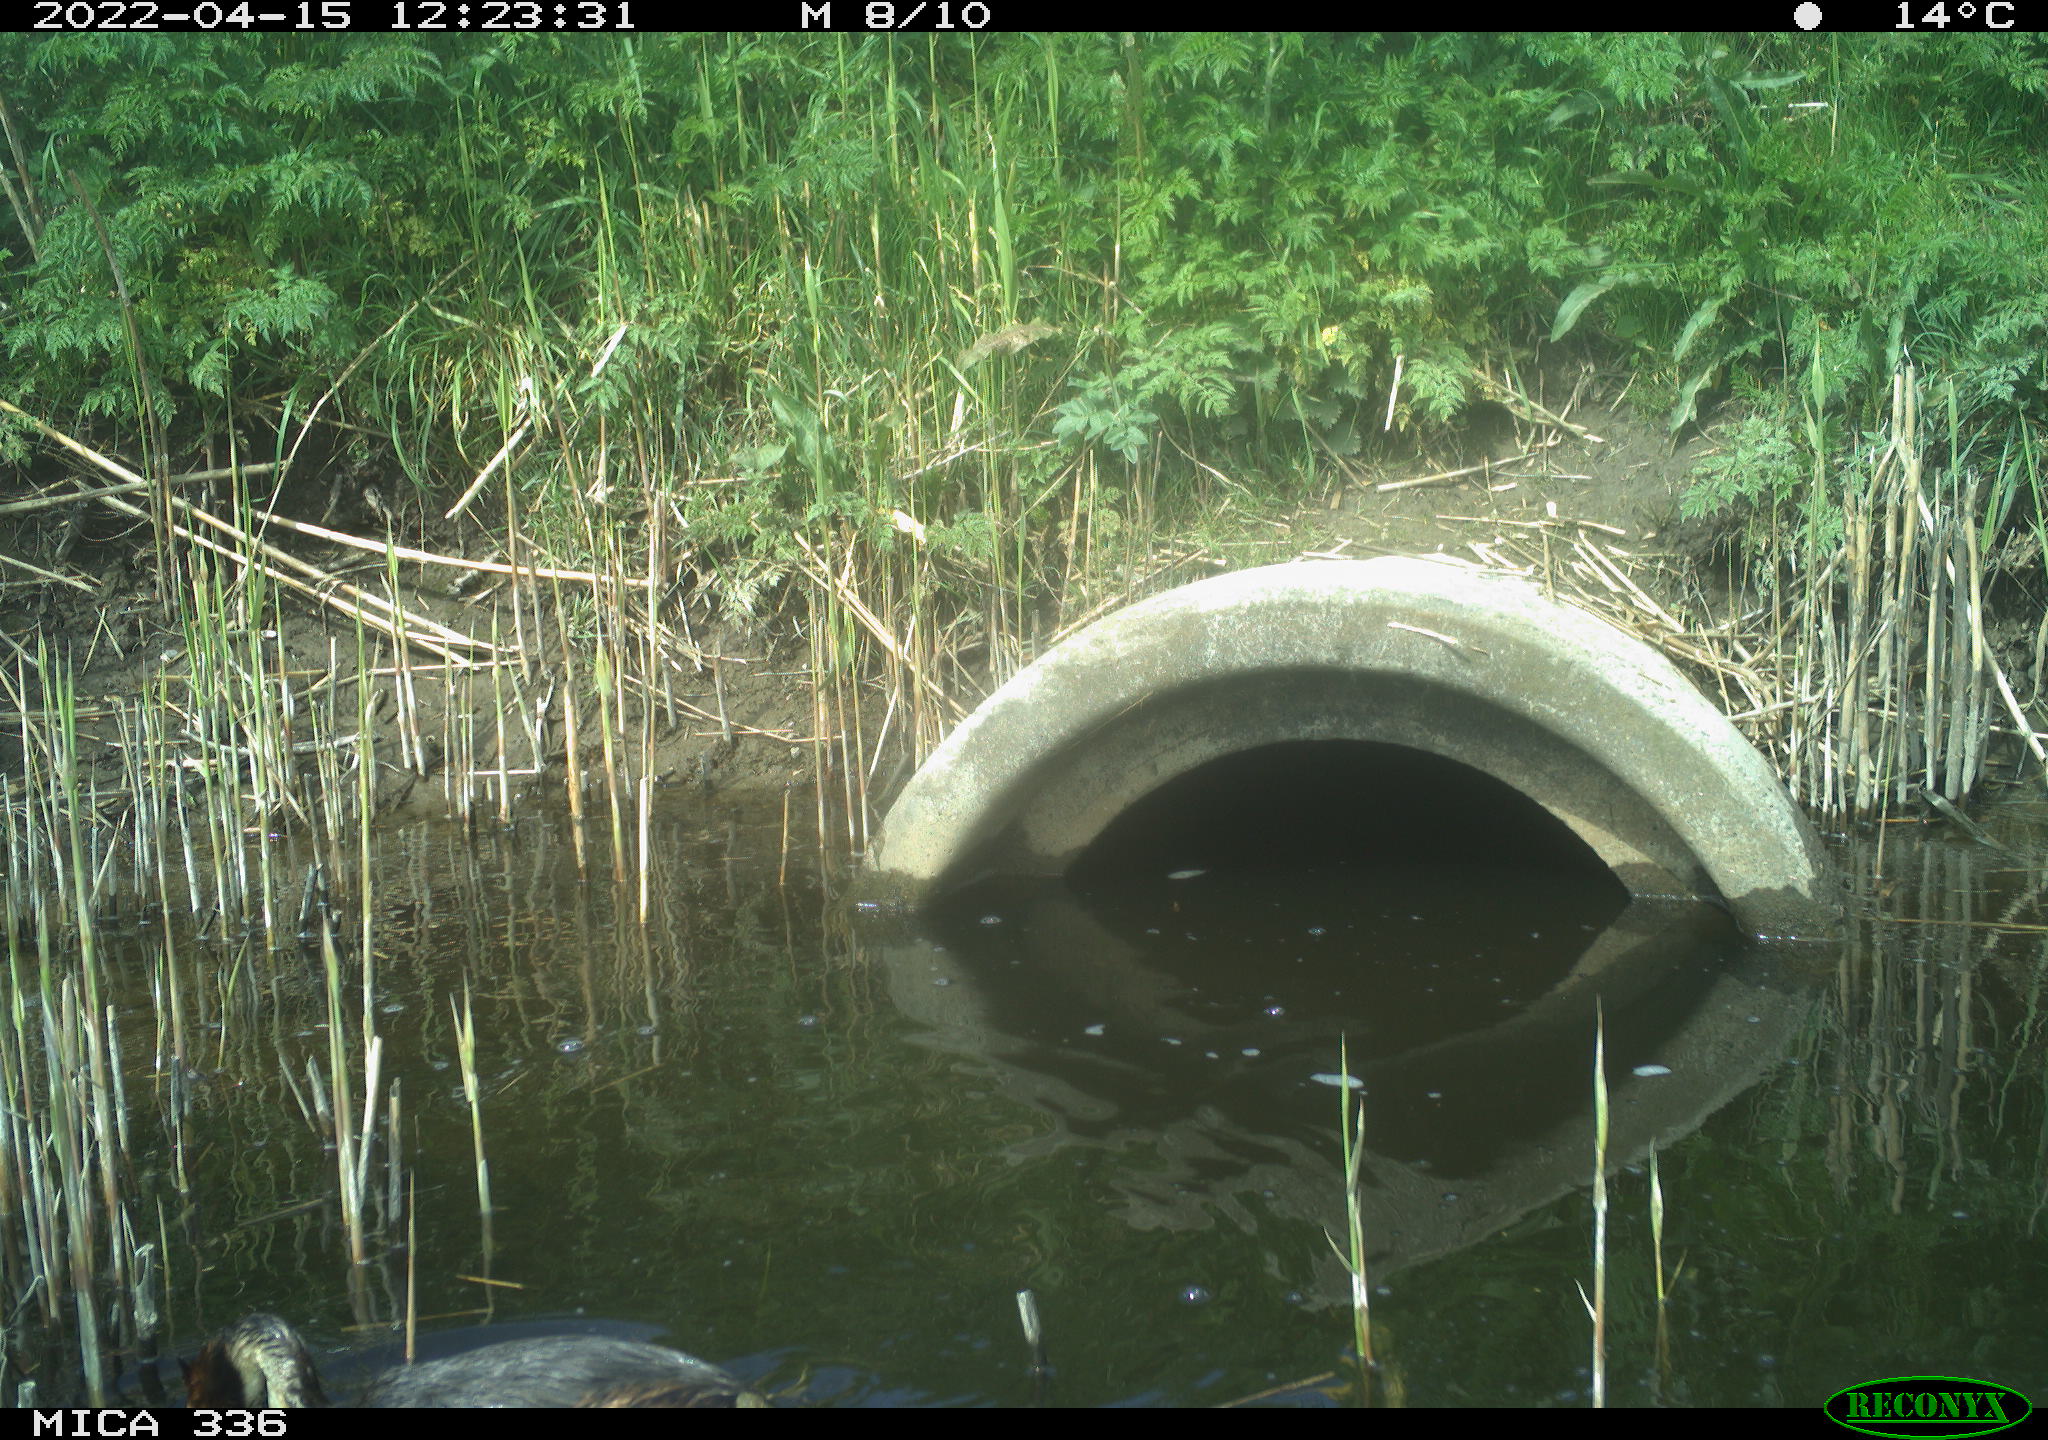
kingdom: Animalia
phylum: Chordata
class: Aves
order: Podicipediformes
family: Podicipedidae
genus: Podiceps
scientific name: Podiceps cristatus
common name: Great crested grebe
